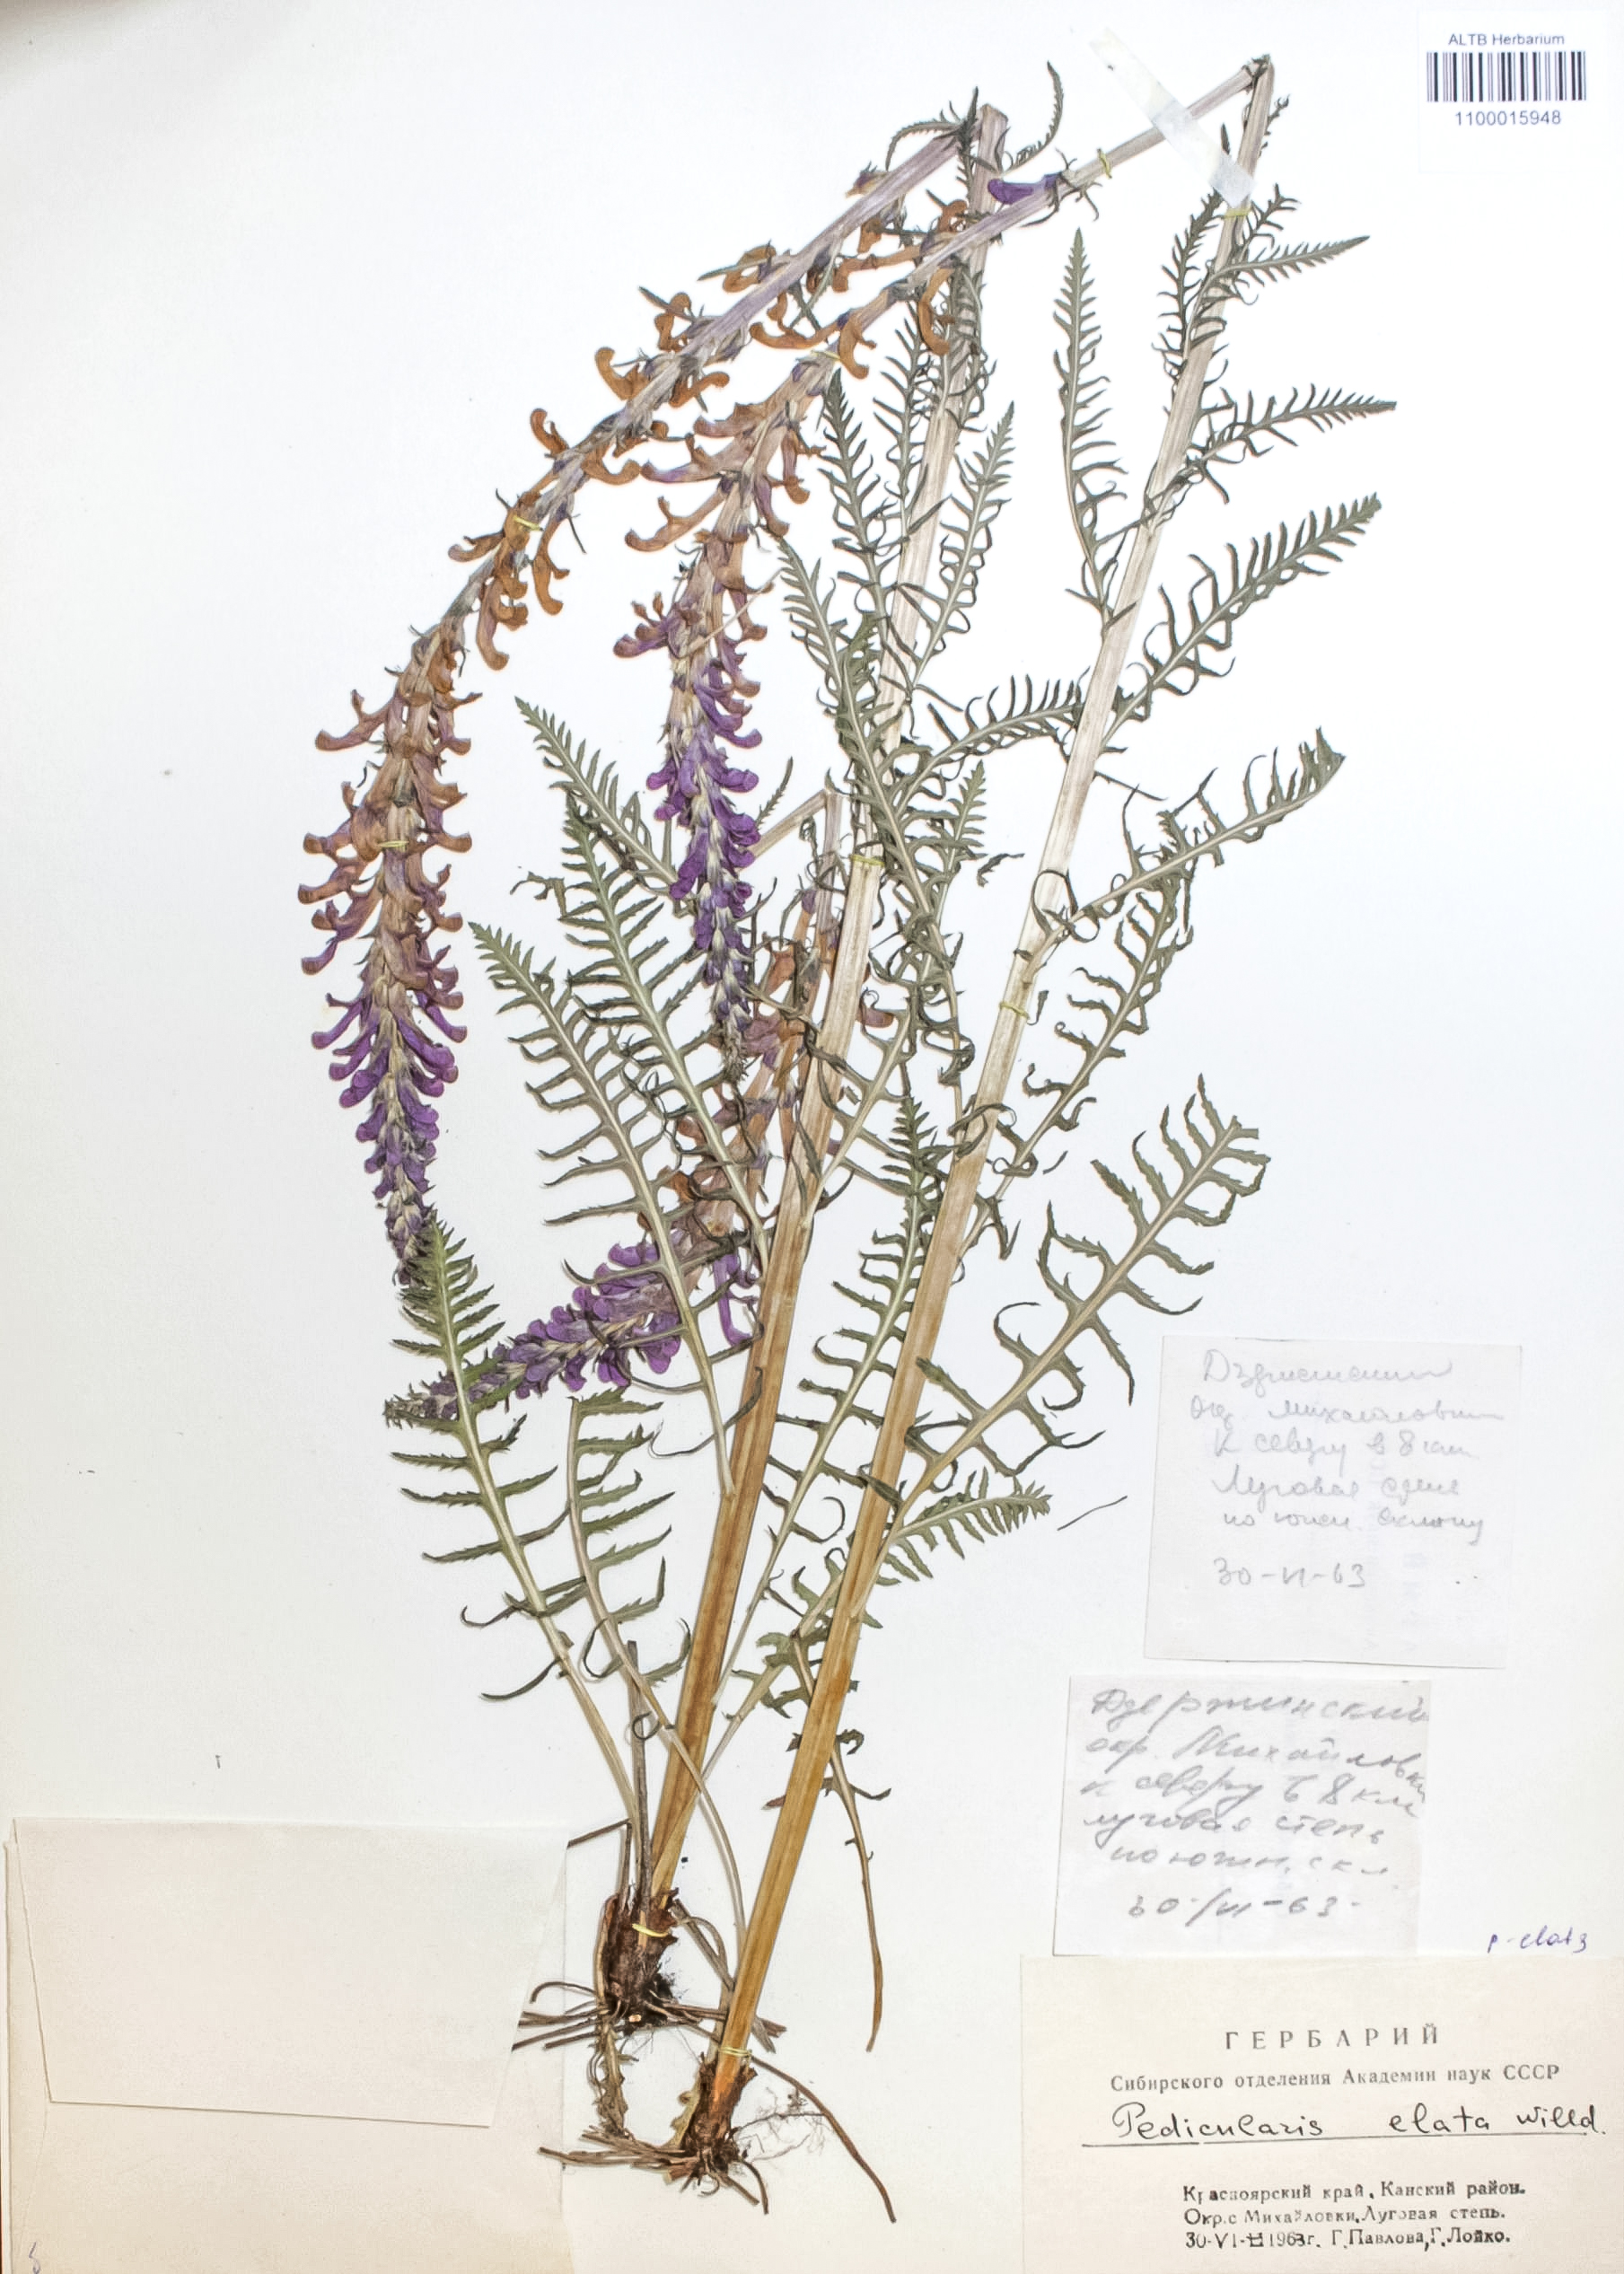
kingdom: Plantae
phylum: Tracheophyta
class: Magnoliopsida
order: Lamiales
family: Orobanchaceae
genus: Pedicularis
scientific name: Pedicularis elata
